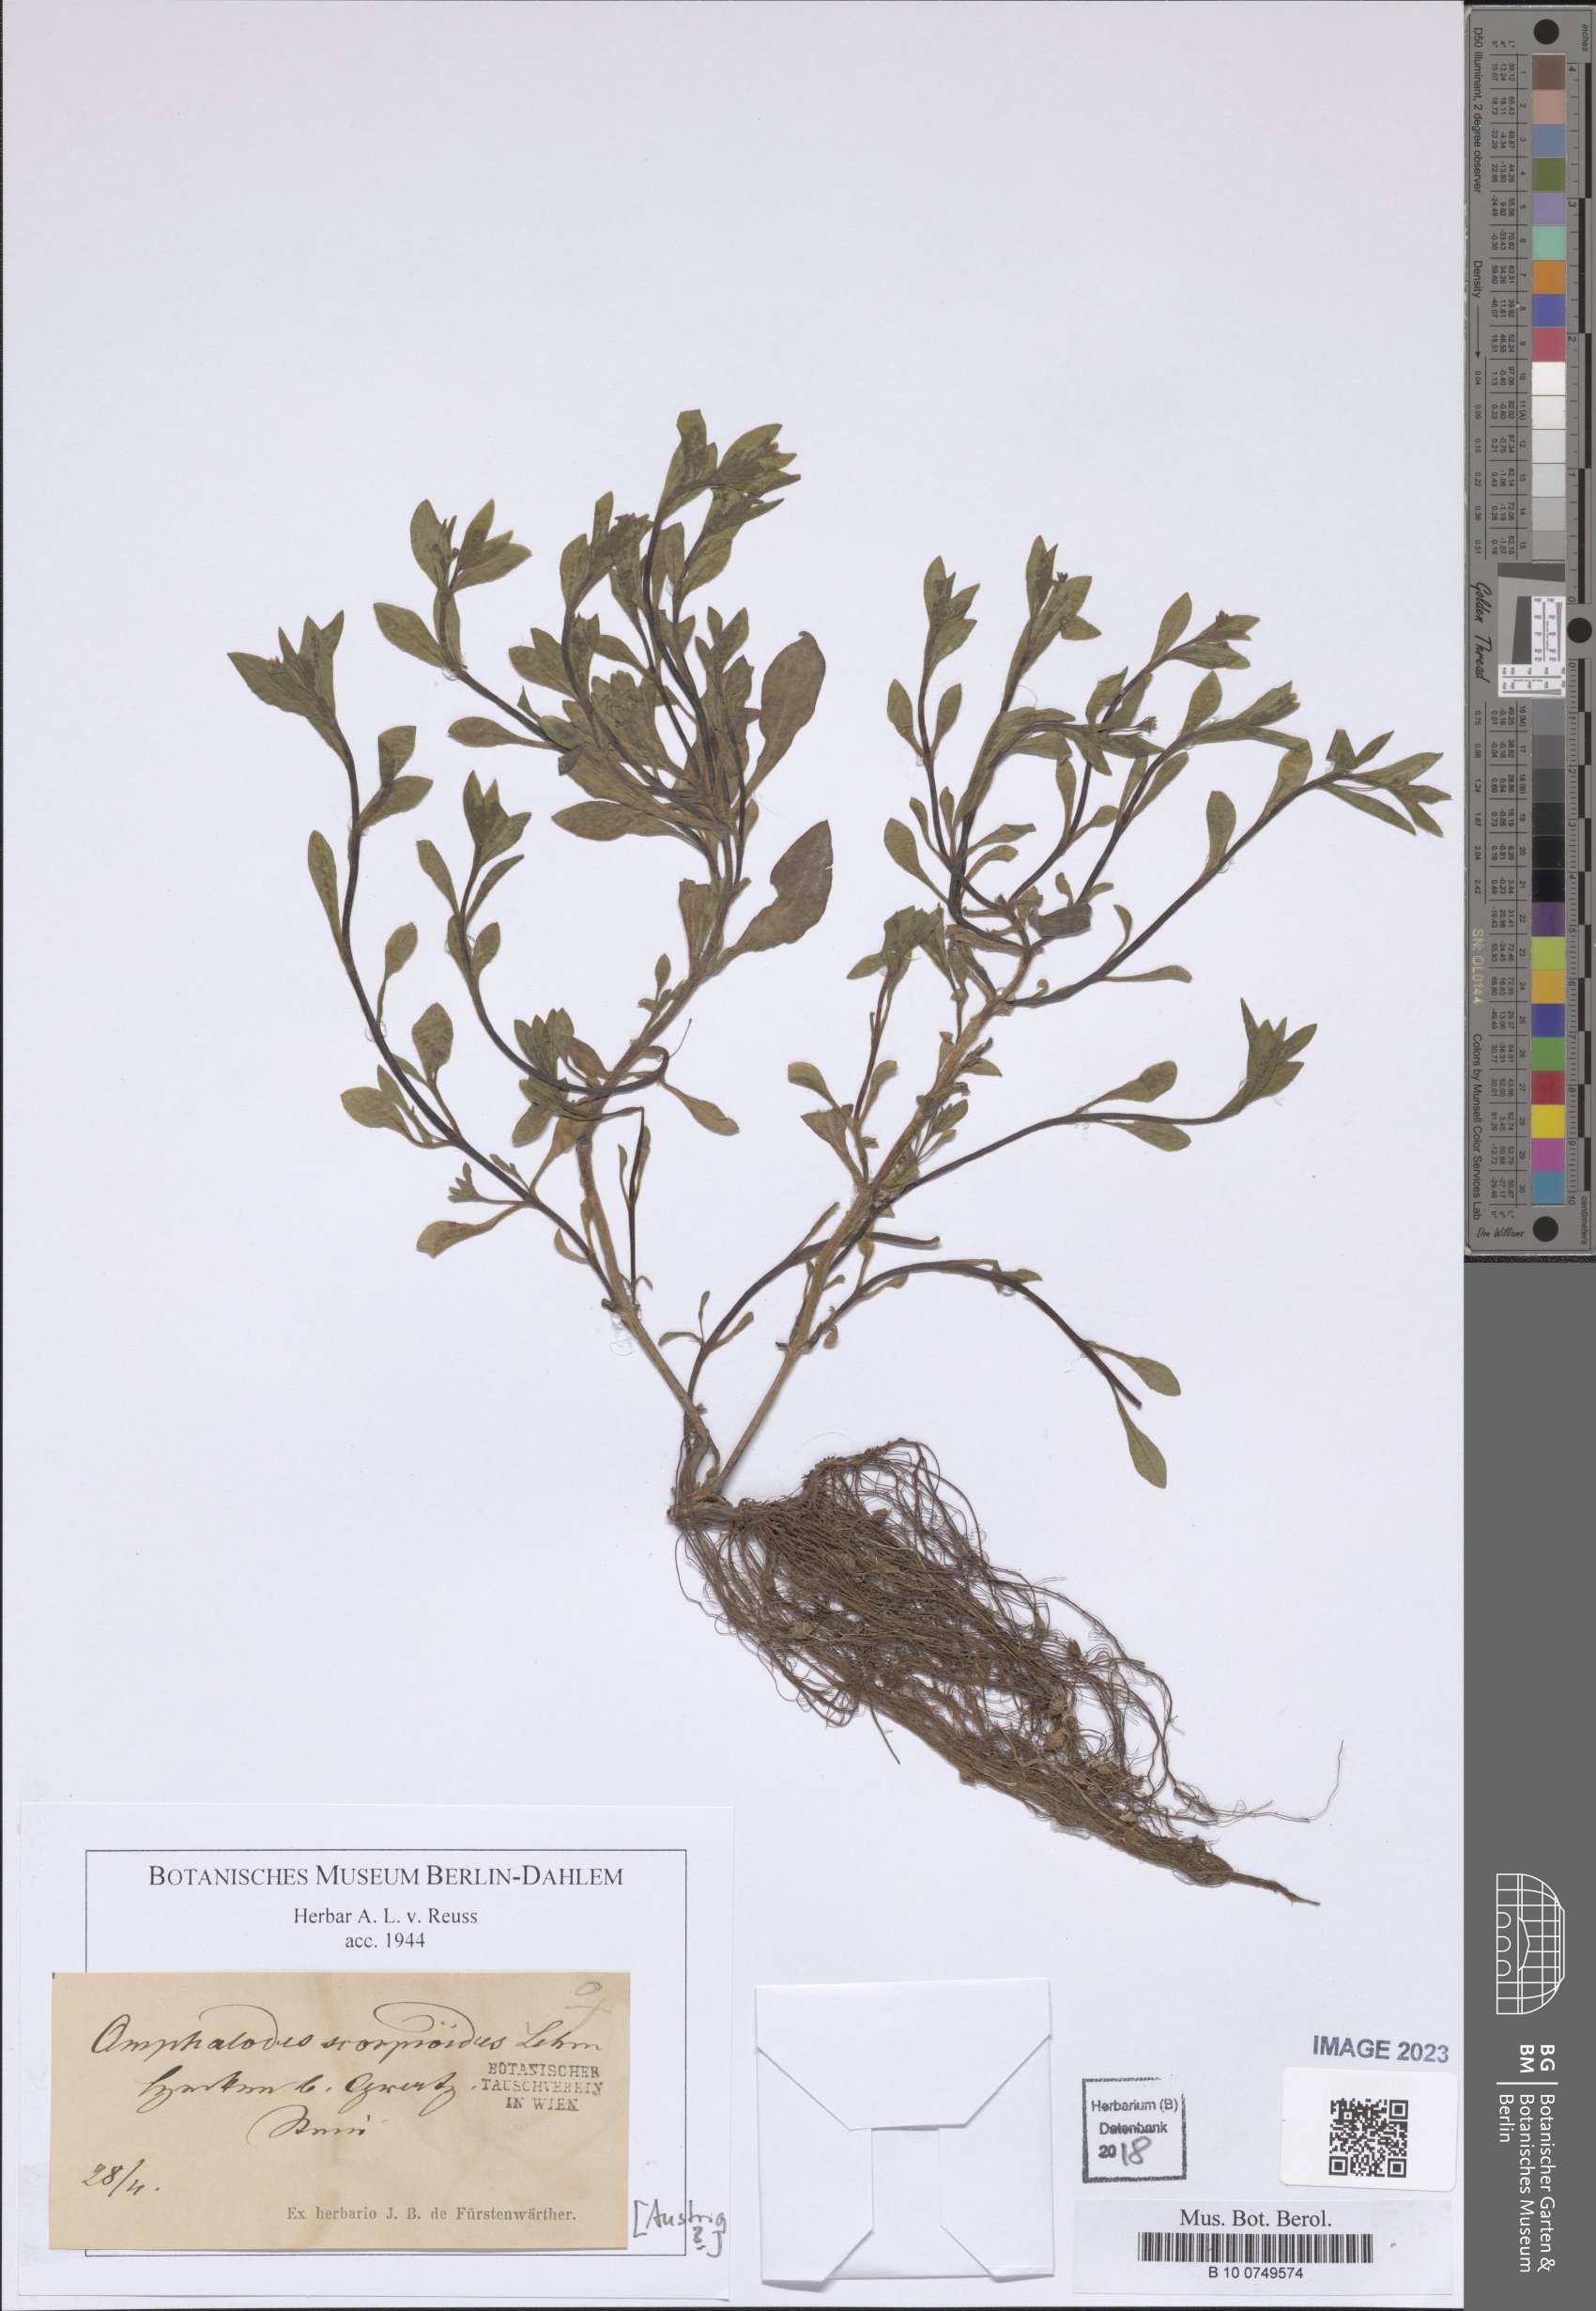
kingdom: Plantae
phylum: Tracheophyta
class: Magnoliopsida
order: Boraginales
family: Boraginaceae
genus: Memoremea
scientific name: Memoremea scorpioides
